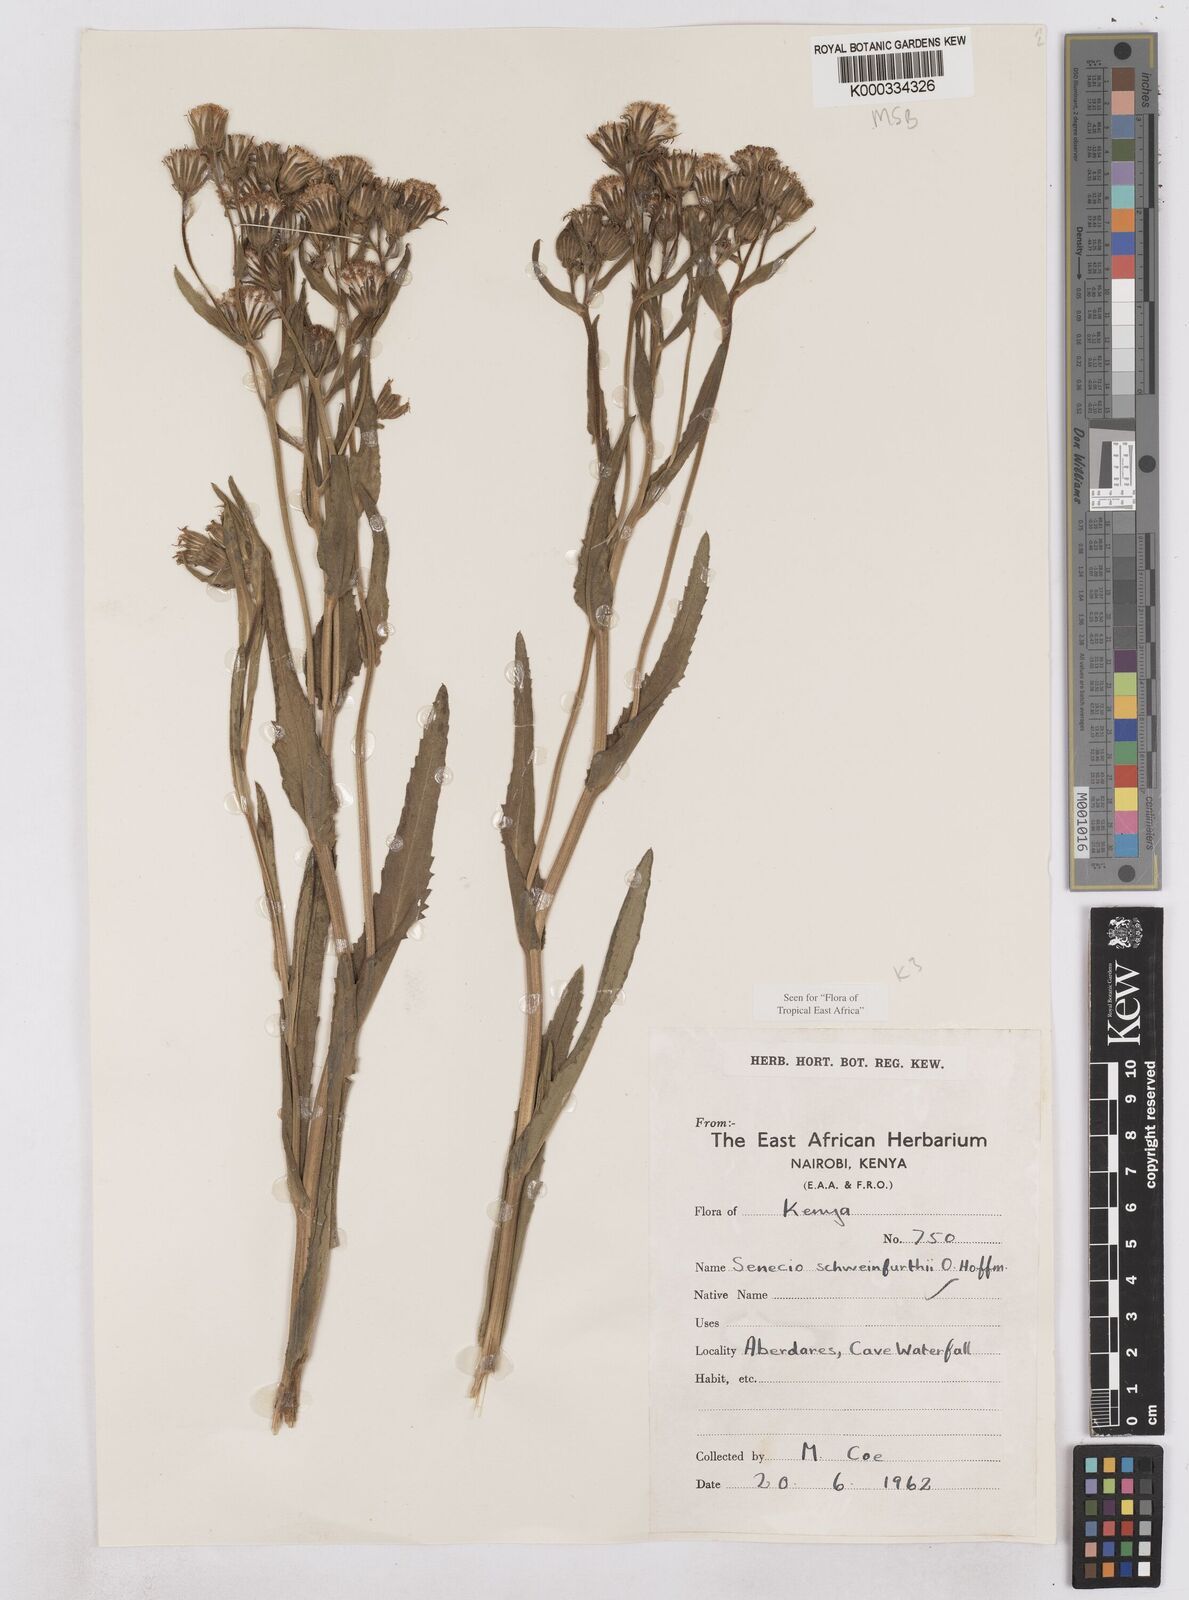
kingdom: Plantae
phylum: Tracheophyta
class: Magnoliopsida
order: Asterales
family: Asteraceae
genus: Senecio
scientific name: Senecio schweinfurthii
